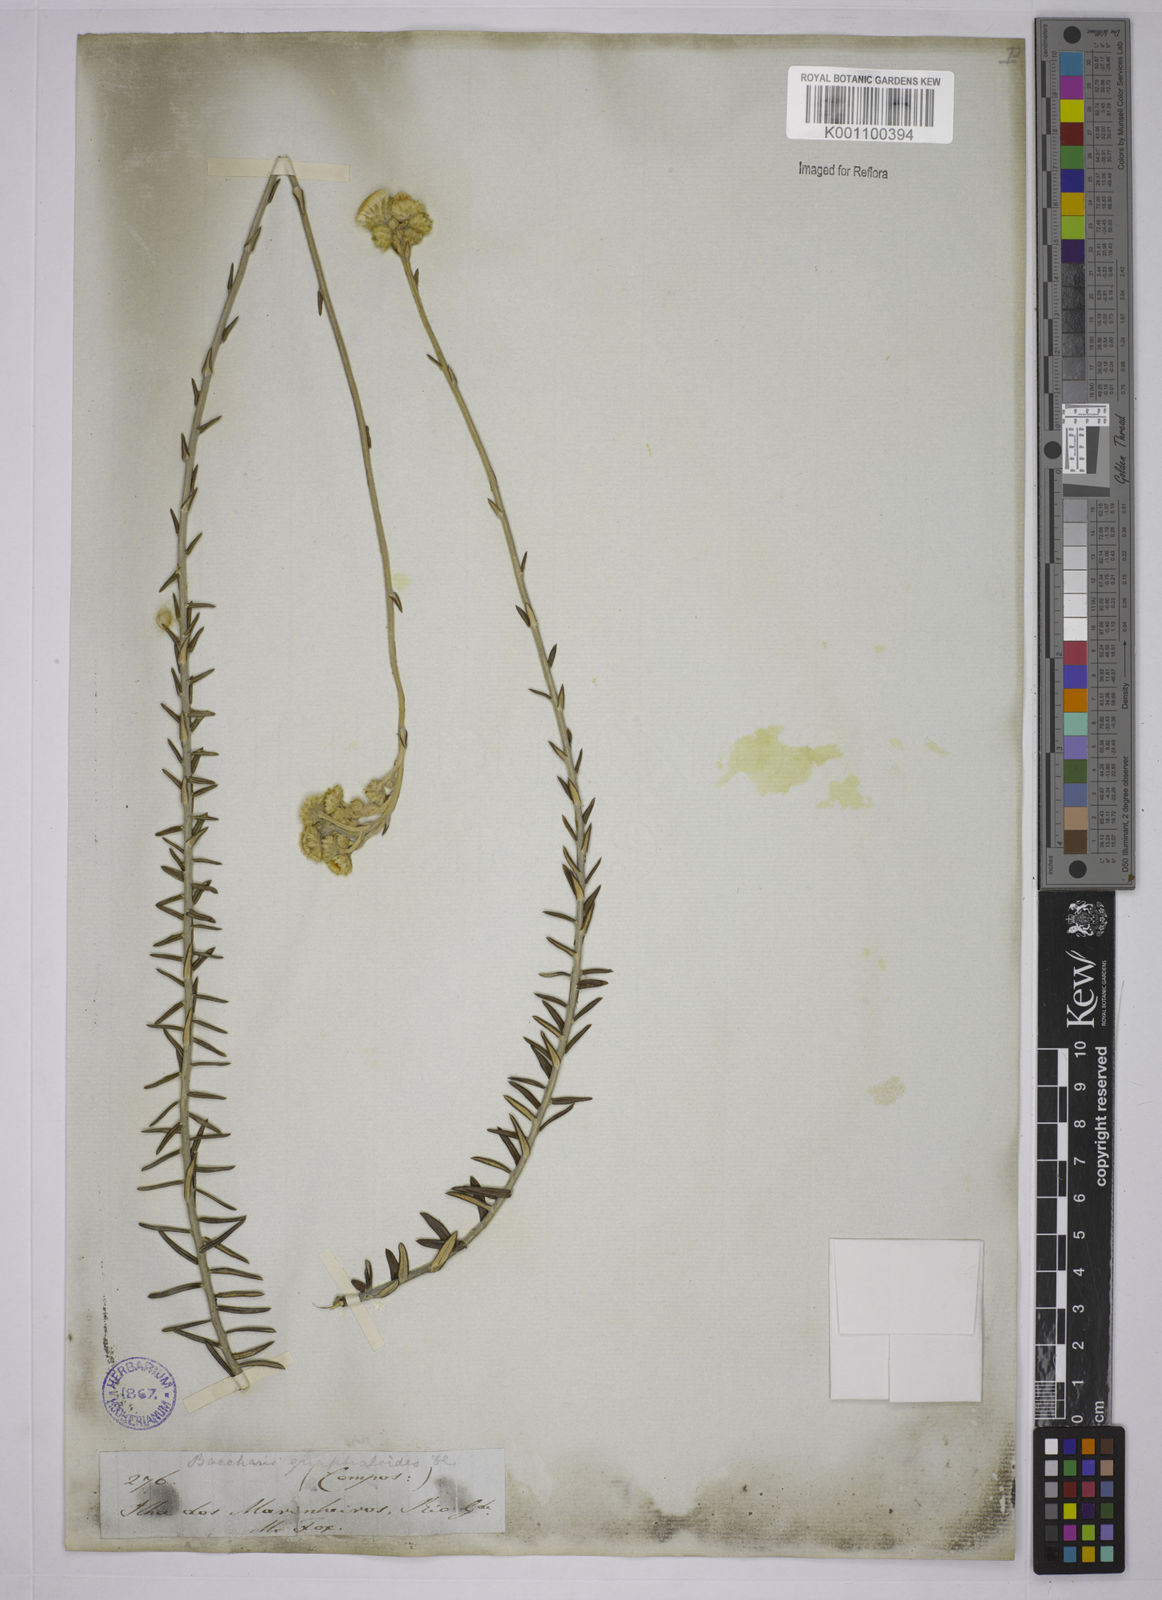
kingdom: Plantae
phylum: Tracheophyta
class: Magnoliopsida
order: Asterales
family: Asteraceae
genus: Lucilia
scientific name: Lucilia acutifolia
